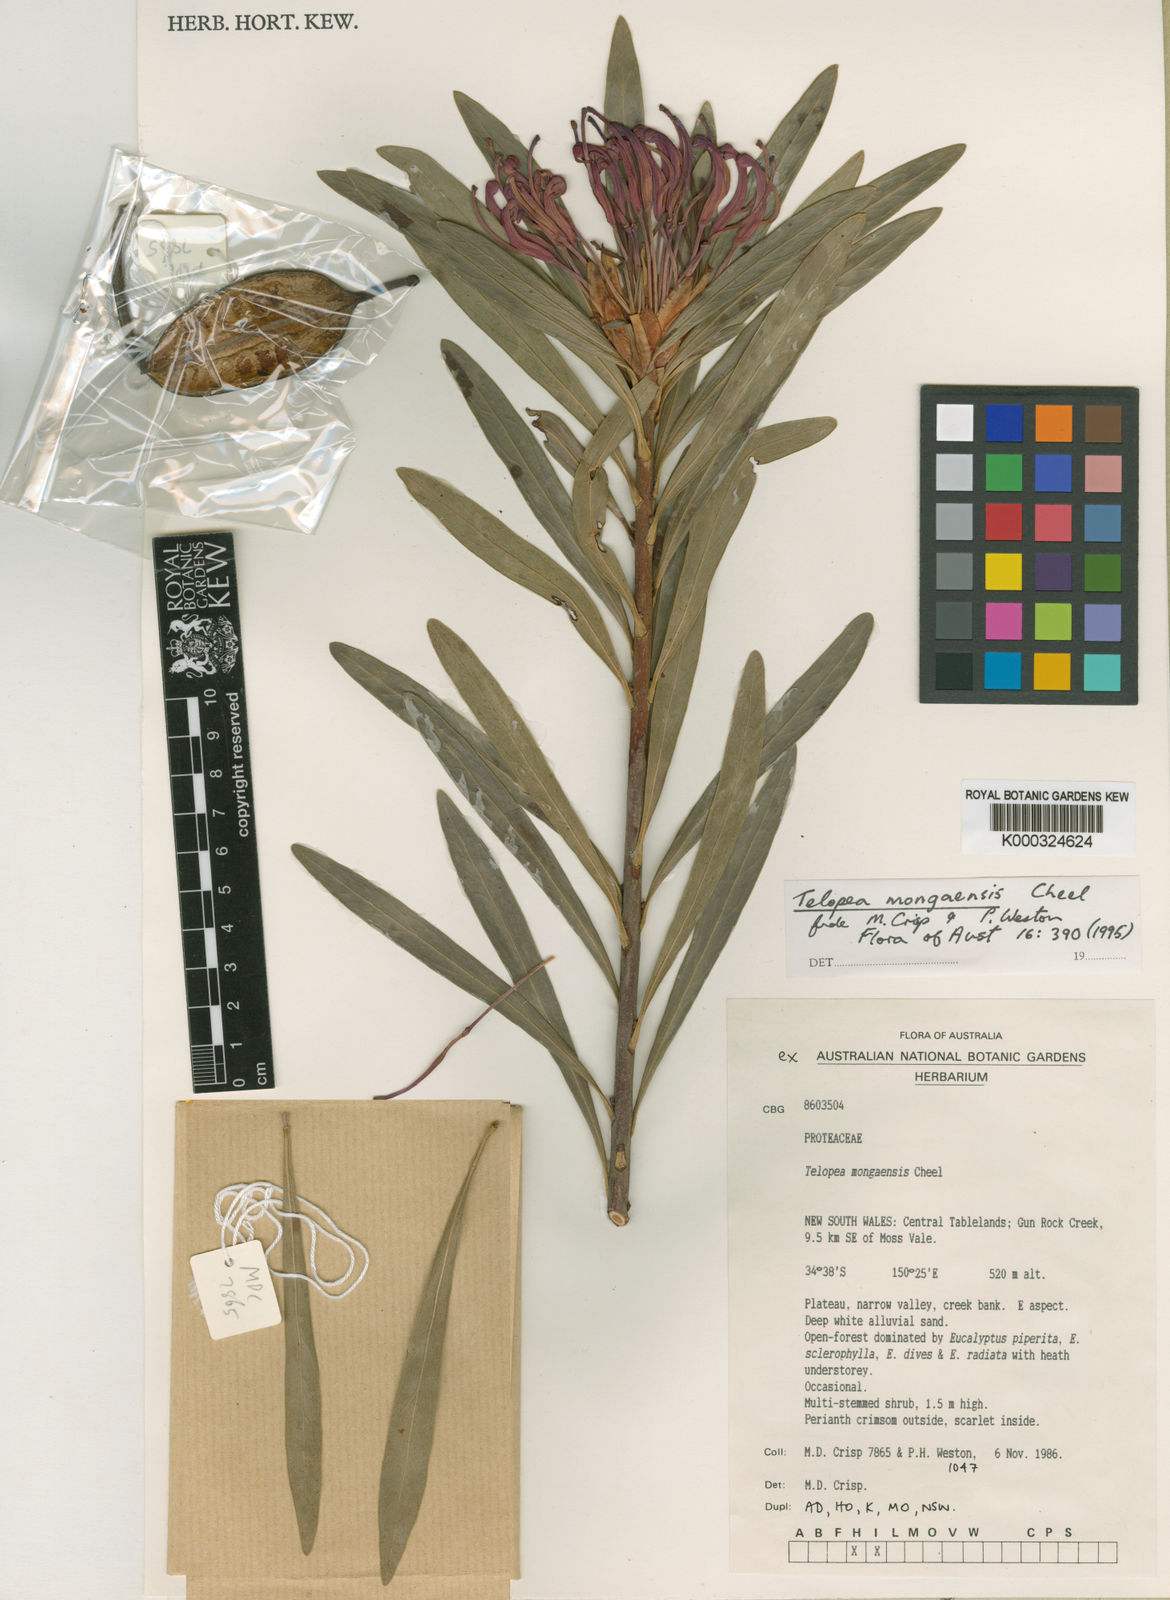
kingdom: Plantae
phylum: Tracheophyta
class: Magnoliopsida
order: Proteales
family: Proteaceae
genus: Telopea
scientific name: Telopea mongaensis
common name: Braidwood waratah
